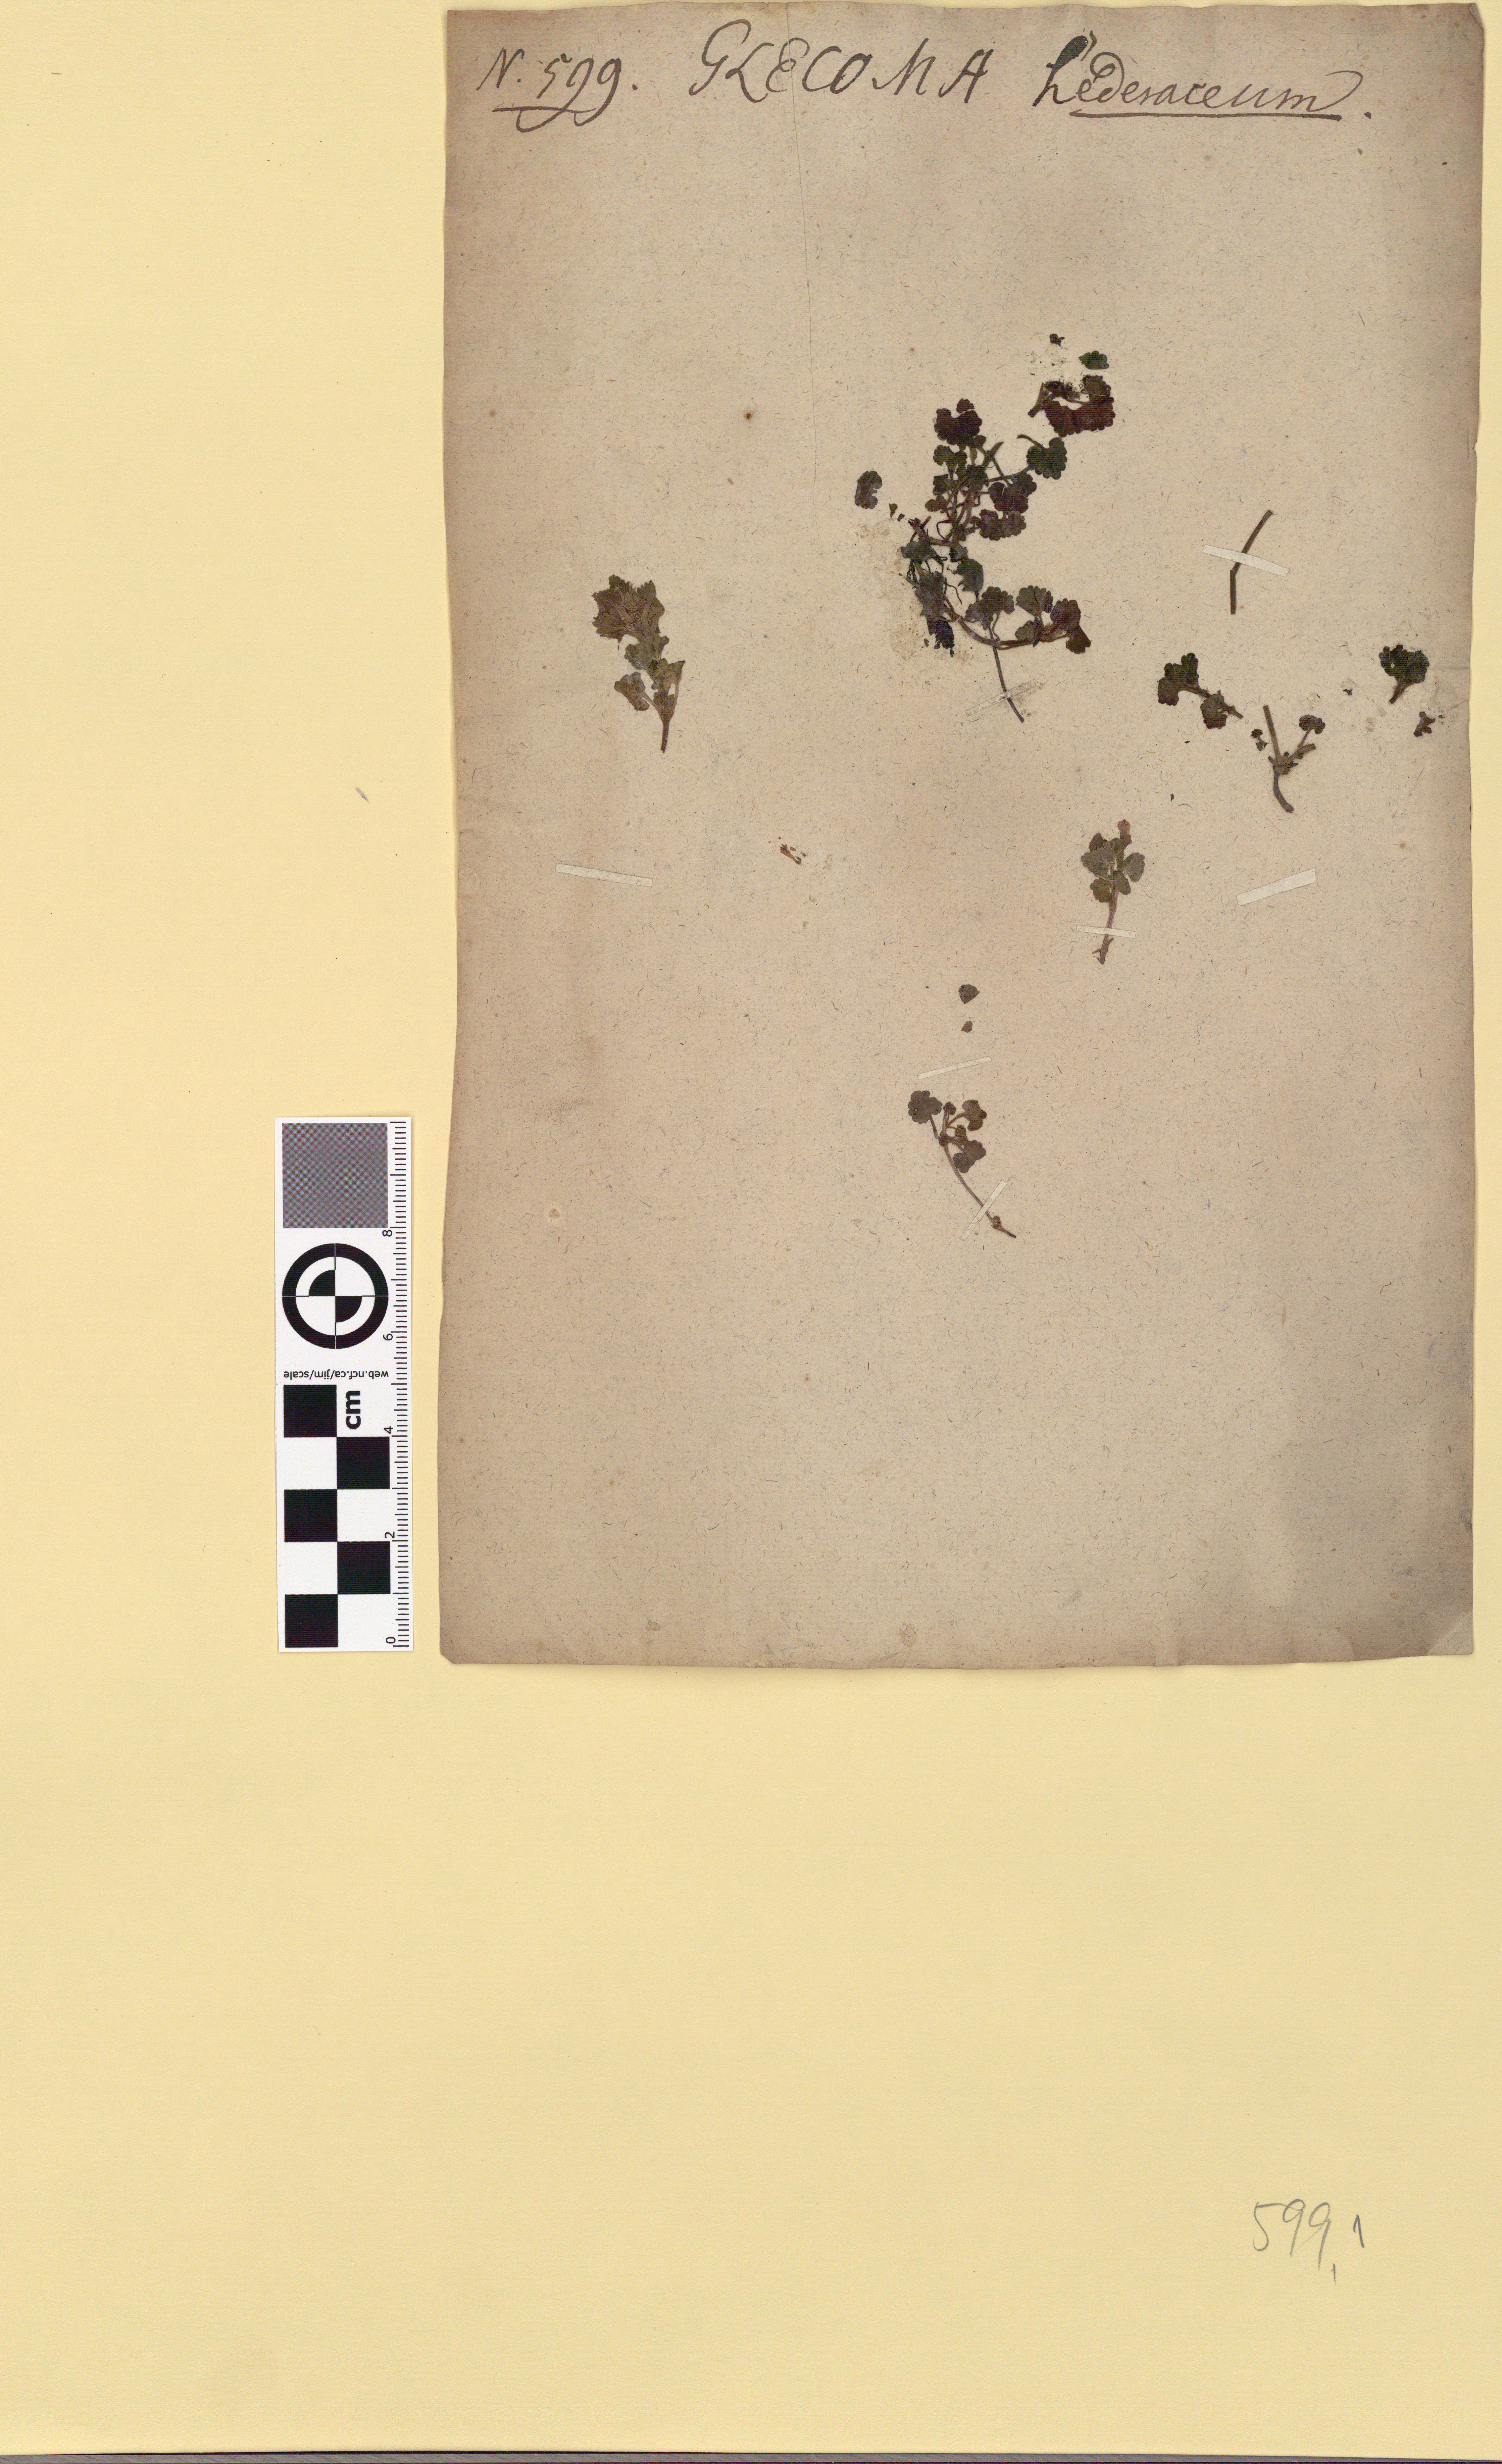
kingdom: Plantae
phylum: Tracheophyta
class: Magnoliopsida
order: Lamiales
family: Lamiaceae
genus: Glechoma
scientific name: Glechoma hederacea
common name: Ground ivy
